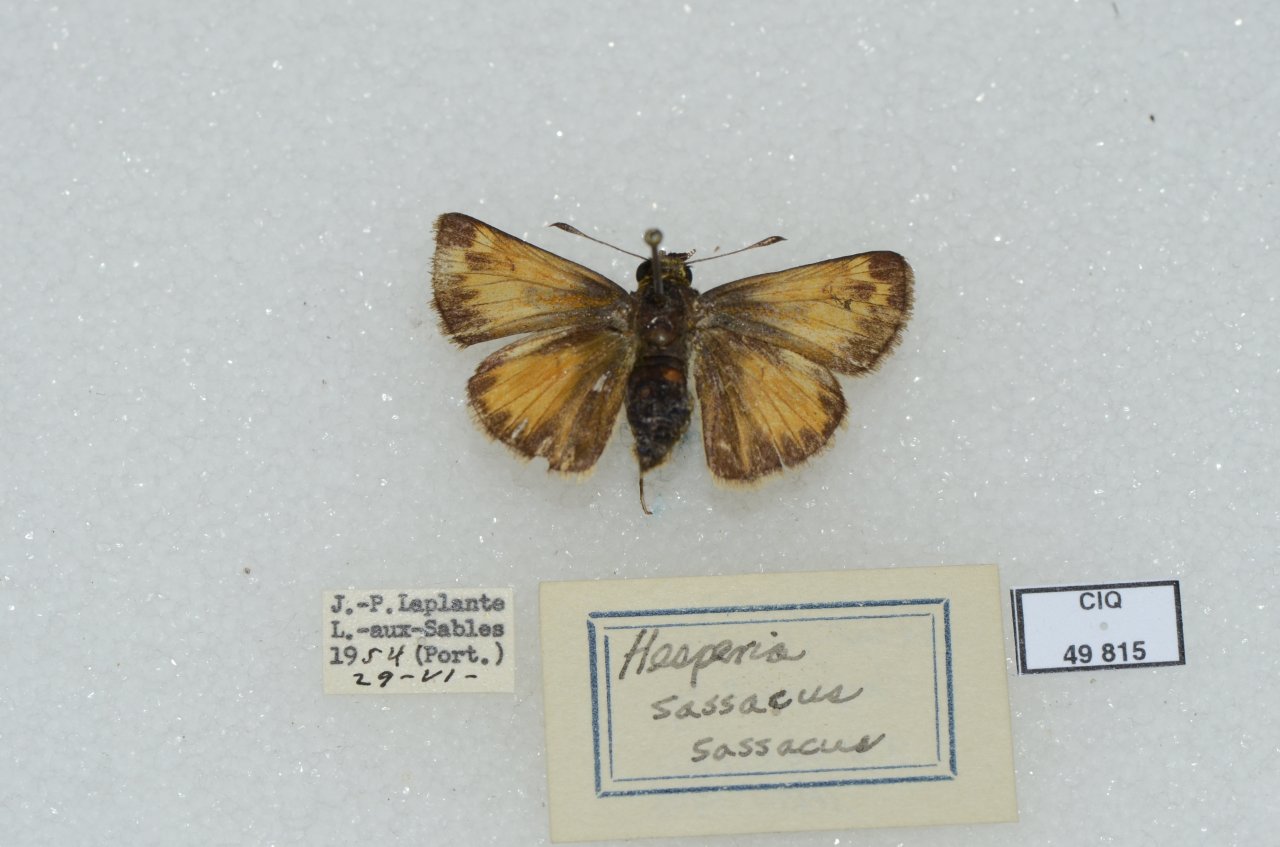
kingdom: Animalia
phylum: Arthropoda
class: Insecta
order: Lepidoptera
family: Hesperiidae
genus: Hesperia
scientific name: Hesperia sassacus
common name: Sassacus Skipper
